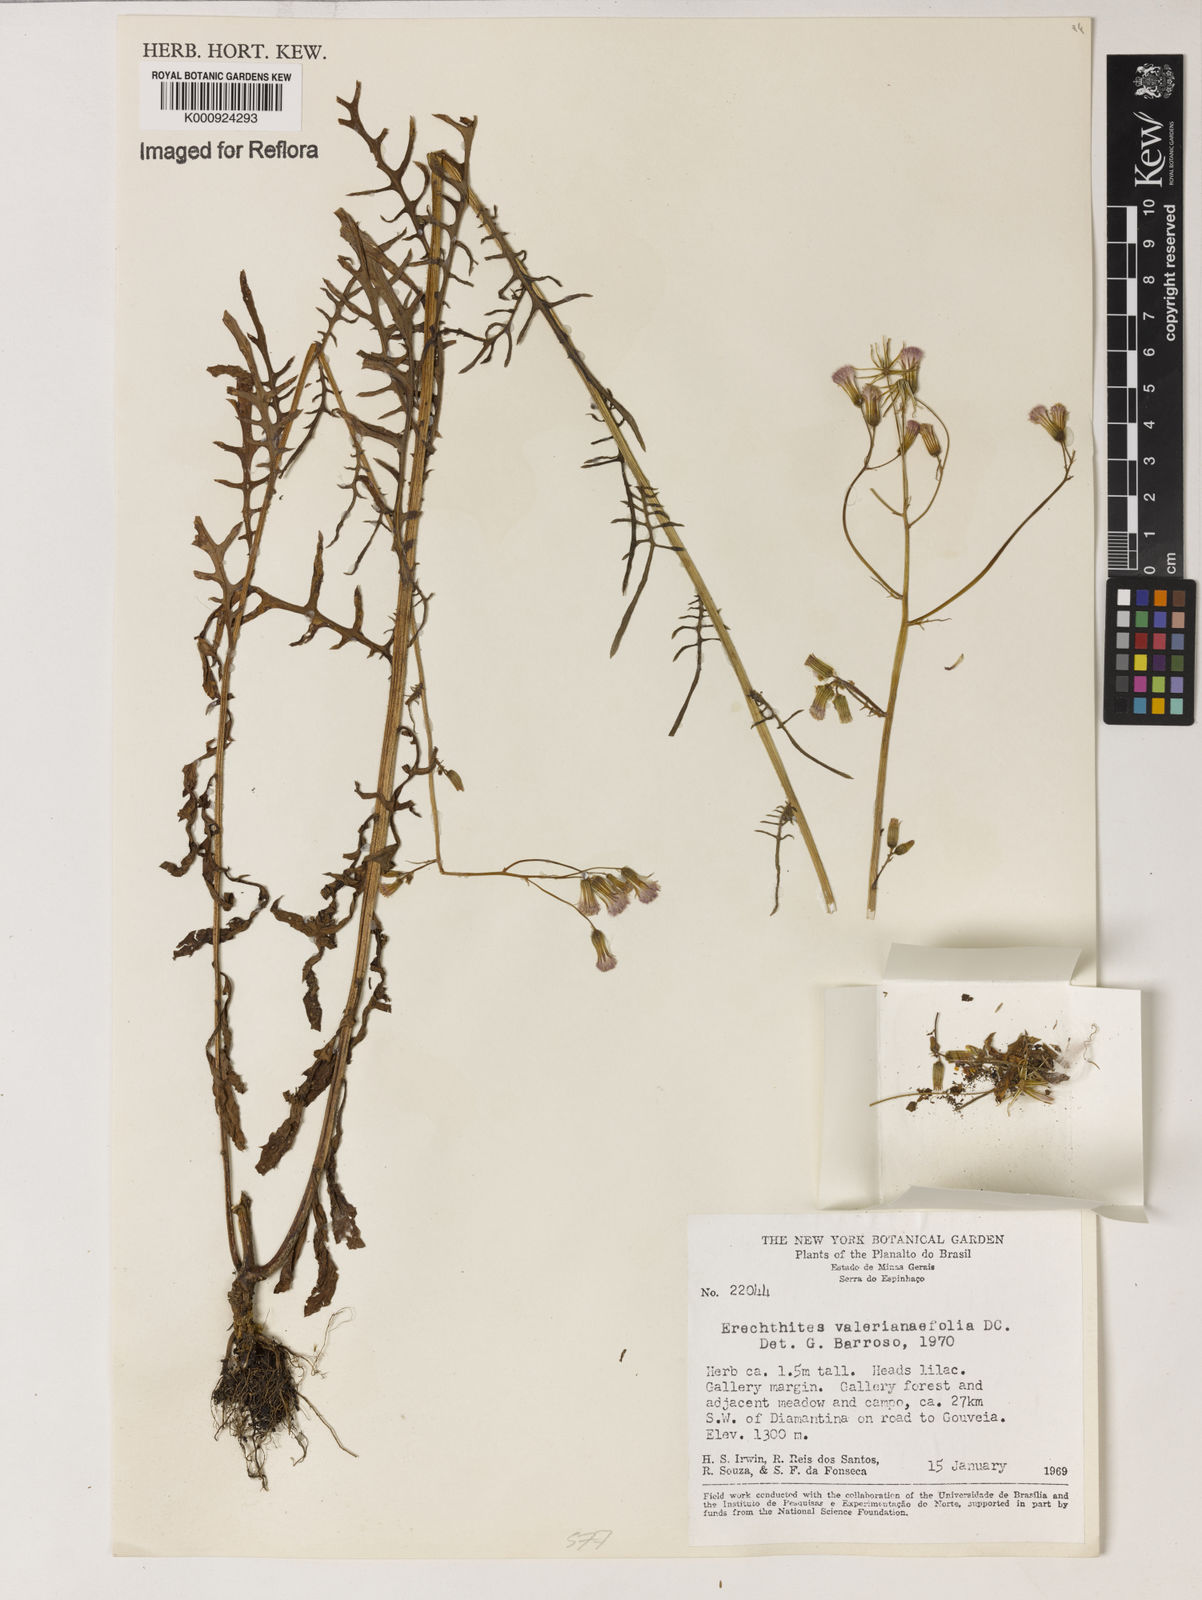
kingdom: Plantae
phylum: Tracheophyta
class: Magnoliopsida
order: Asterales
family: Asteraceae
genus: Erechtites
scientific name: Erechtites valerianifolius
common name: Tropical burnweed
